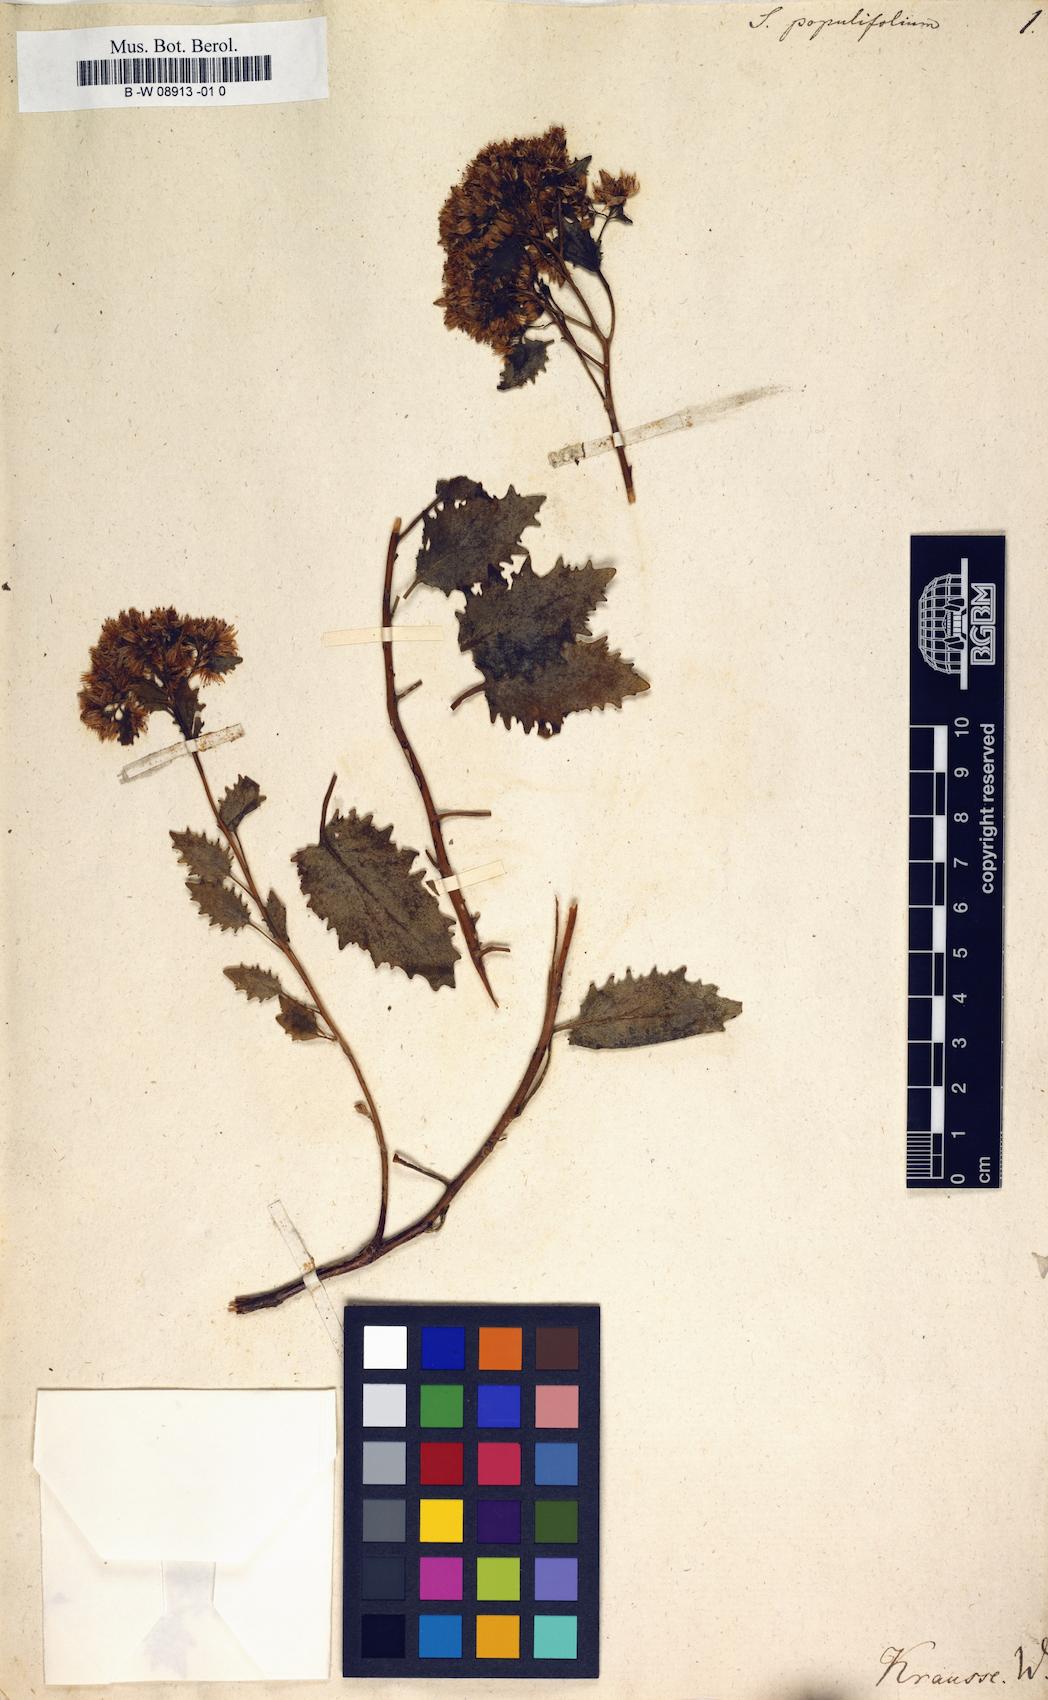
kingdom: Plantae
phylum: Tracheophyta
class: Magnoliopsida
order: Saxifragales
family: Crassulaceae
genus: Hylotelephium
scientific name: Hylotelephium populifolium
